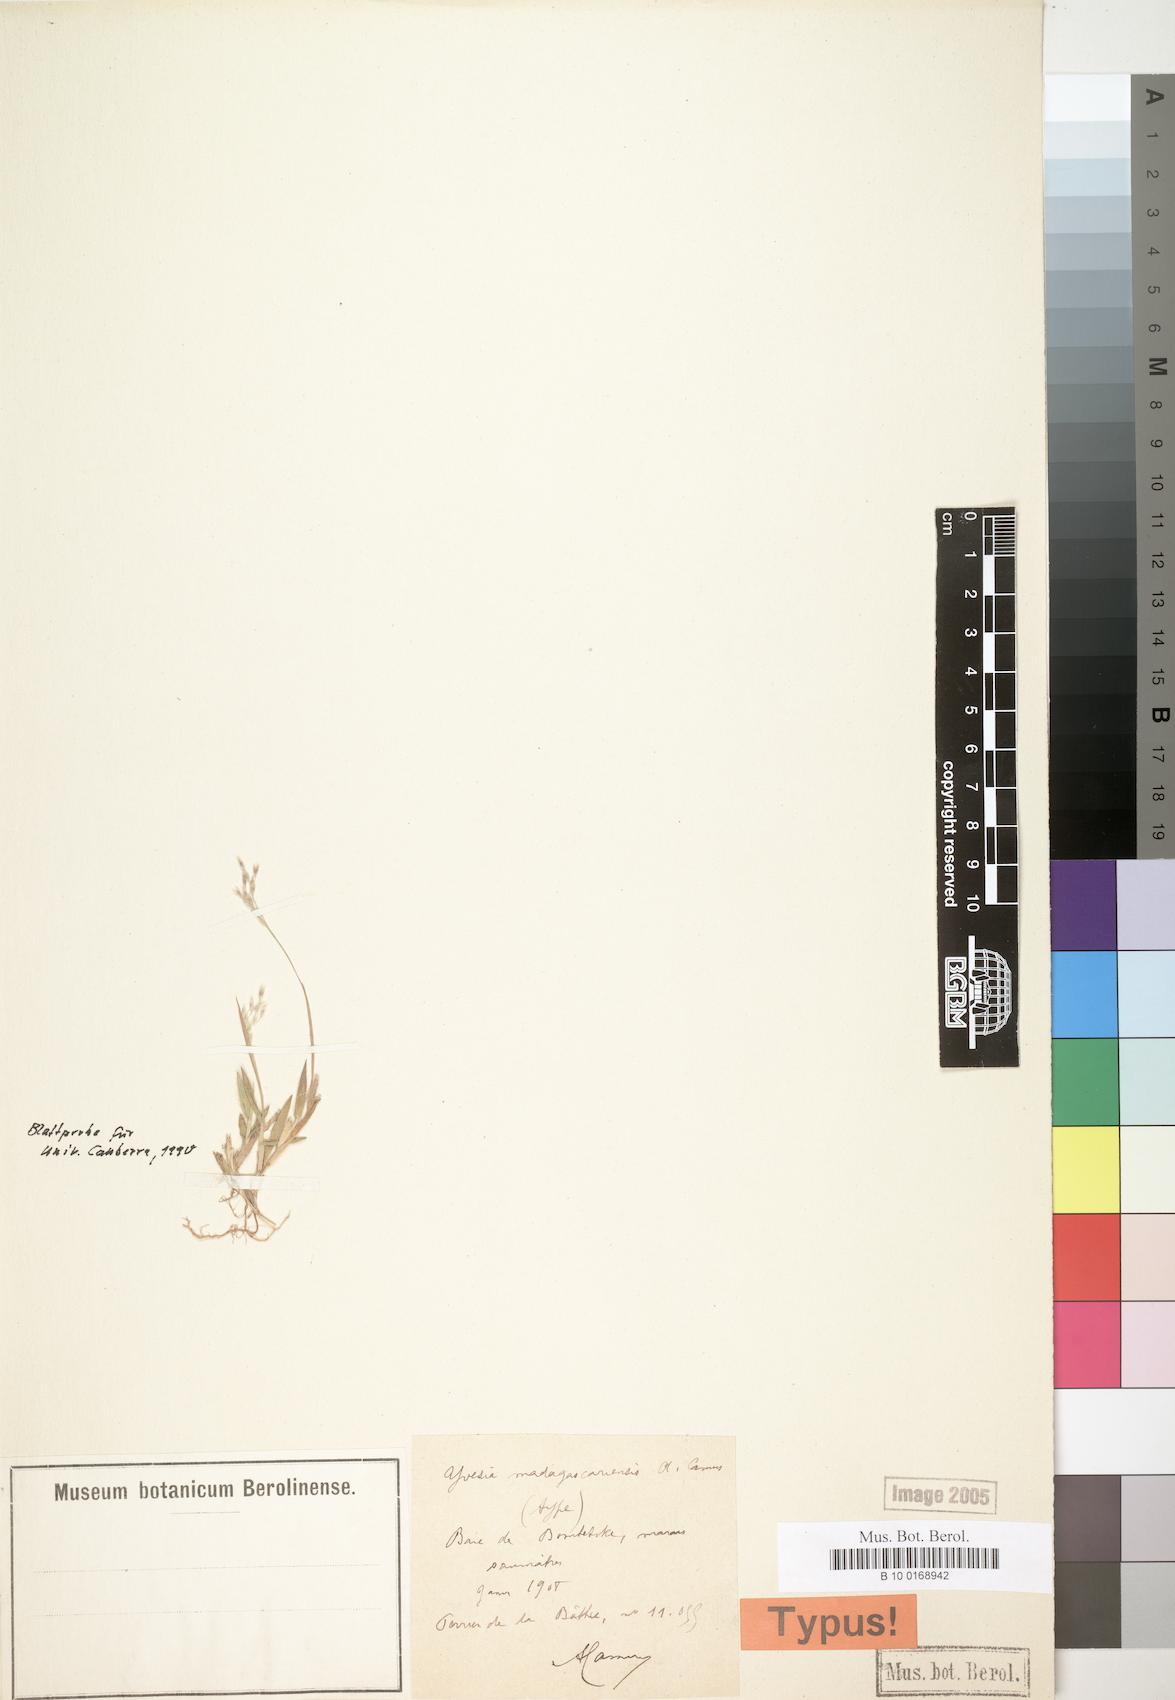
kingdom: Plantae
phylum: Tracheophyta
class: Liliopsida
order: Poales
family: Poaceae
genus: Yvesia
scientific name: Yvesia madagascariensis
